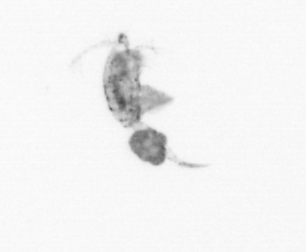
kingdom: Animalia
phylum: Arthropoda
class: Copepoda
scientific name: Copepoda
